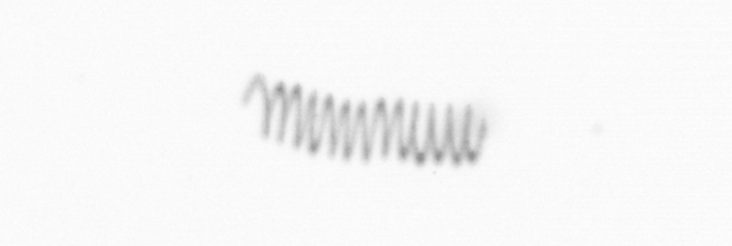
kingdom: Chromista
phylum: Ochrophyta
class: Bacillariophyceae
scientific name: Bacillariophyceae
